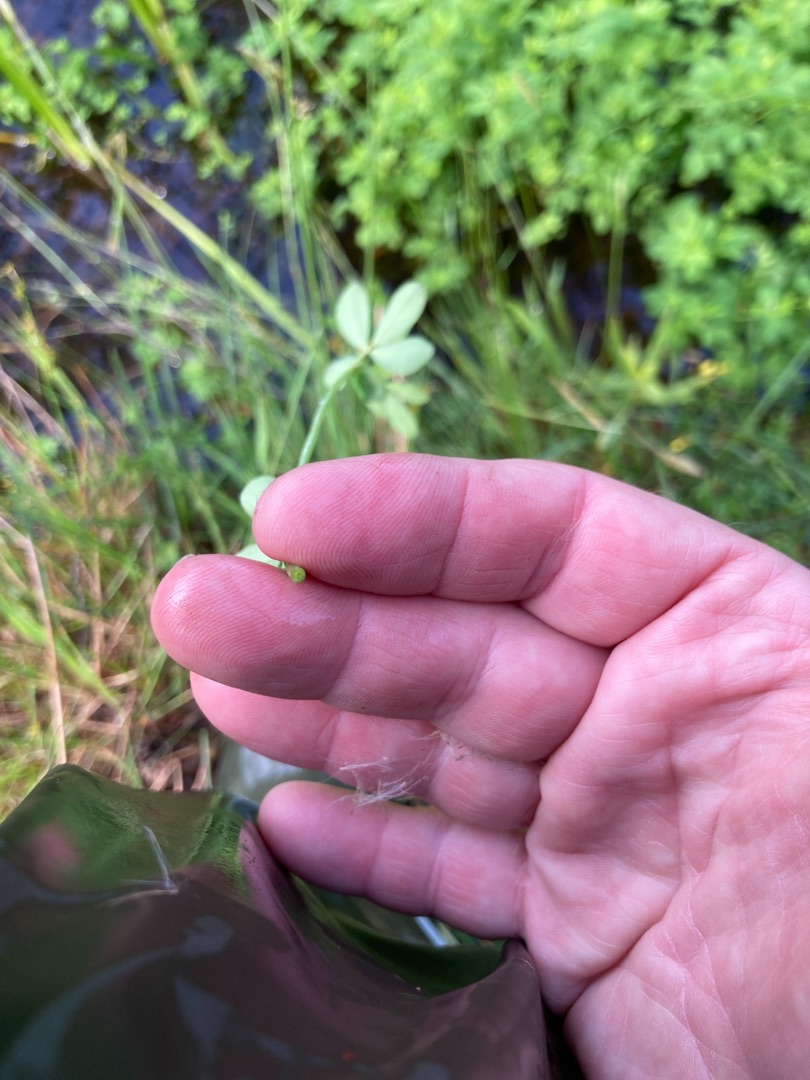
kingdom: Plantae
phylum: Tracheophyta
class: Magnoliopsida
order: Fabales
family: Fabaceae
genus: Lotus
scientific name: Lotus pedunculatus
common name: Sump-kællingetand
